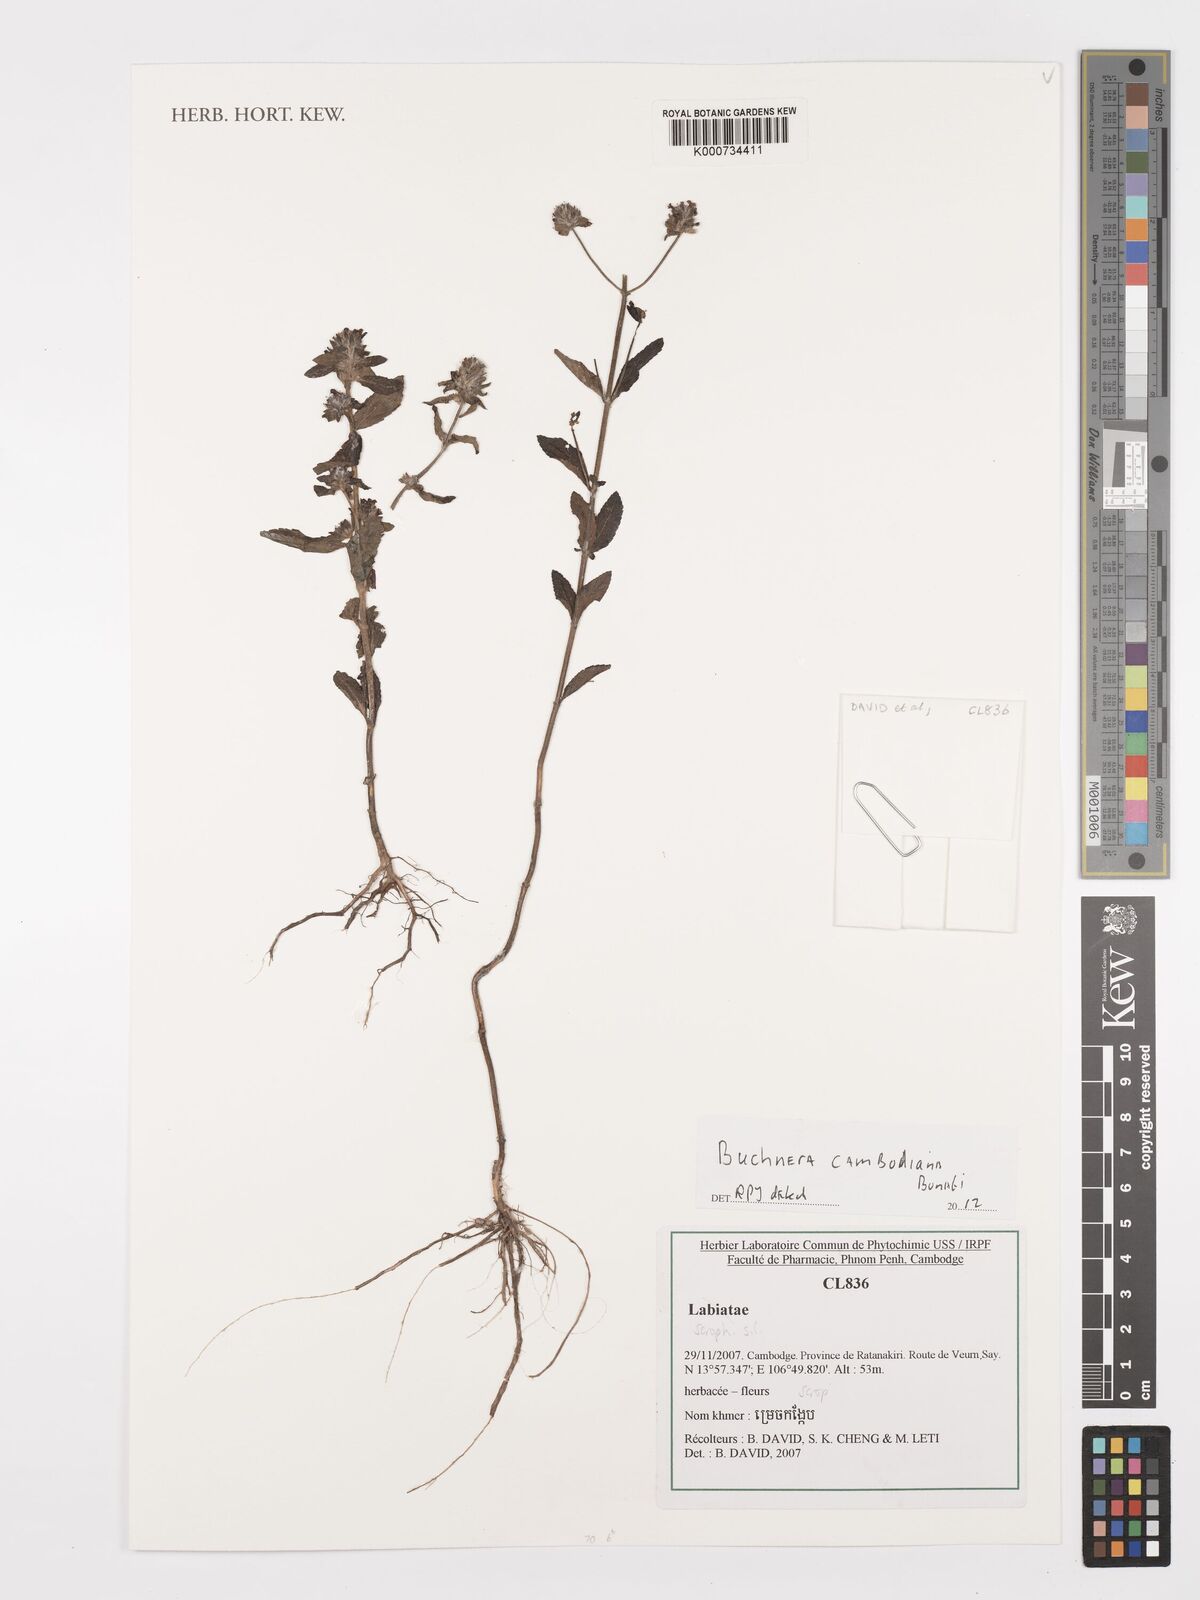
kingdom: Plantae
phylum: Tracheophyta
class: Magnoliopsida
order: Lamiales
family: Orobanchaceae
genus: Buchnera
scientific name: Buchnera cambodiana
